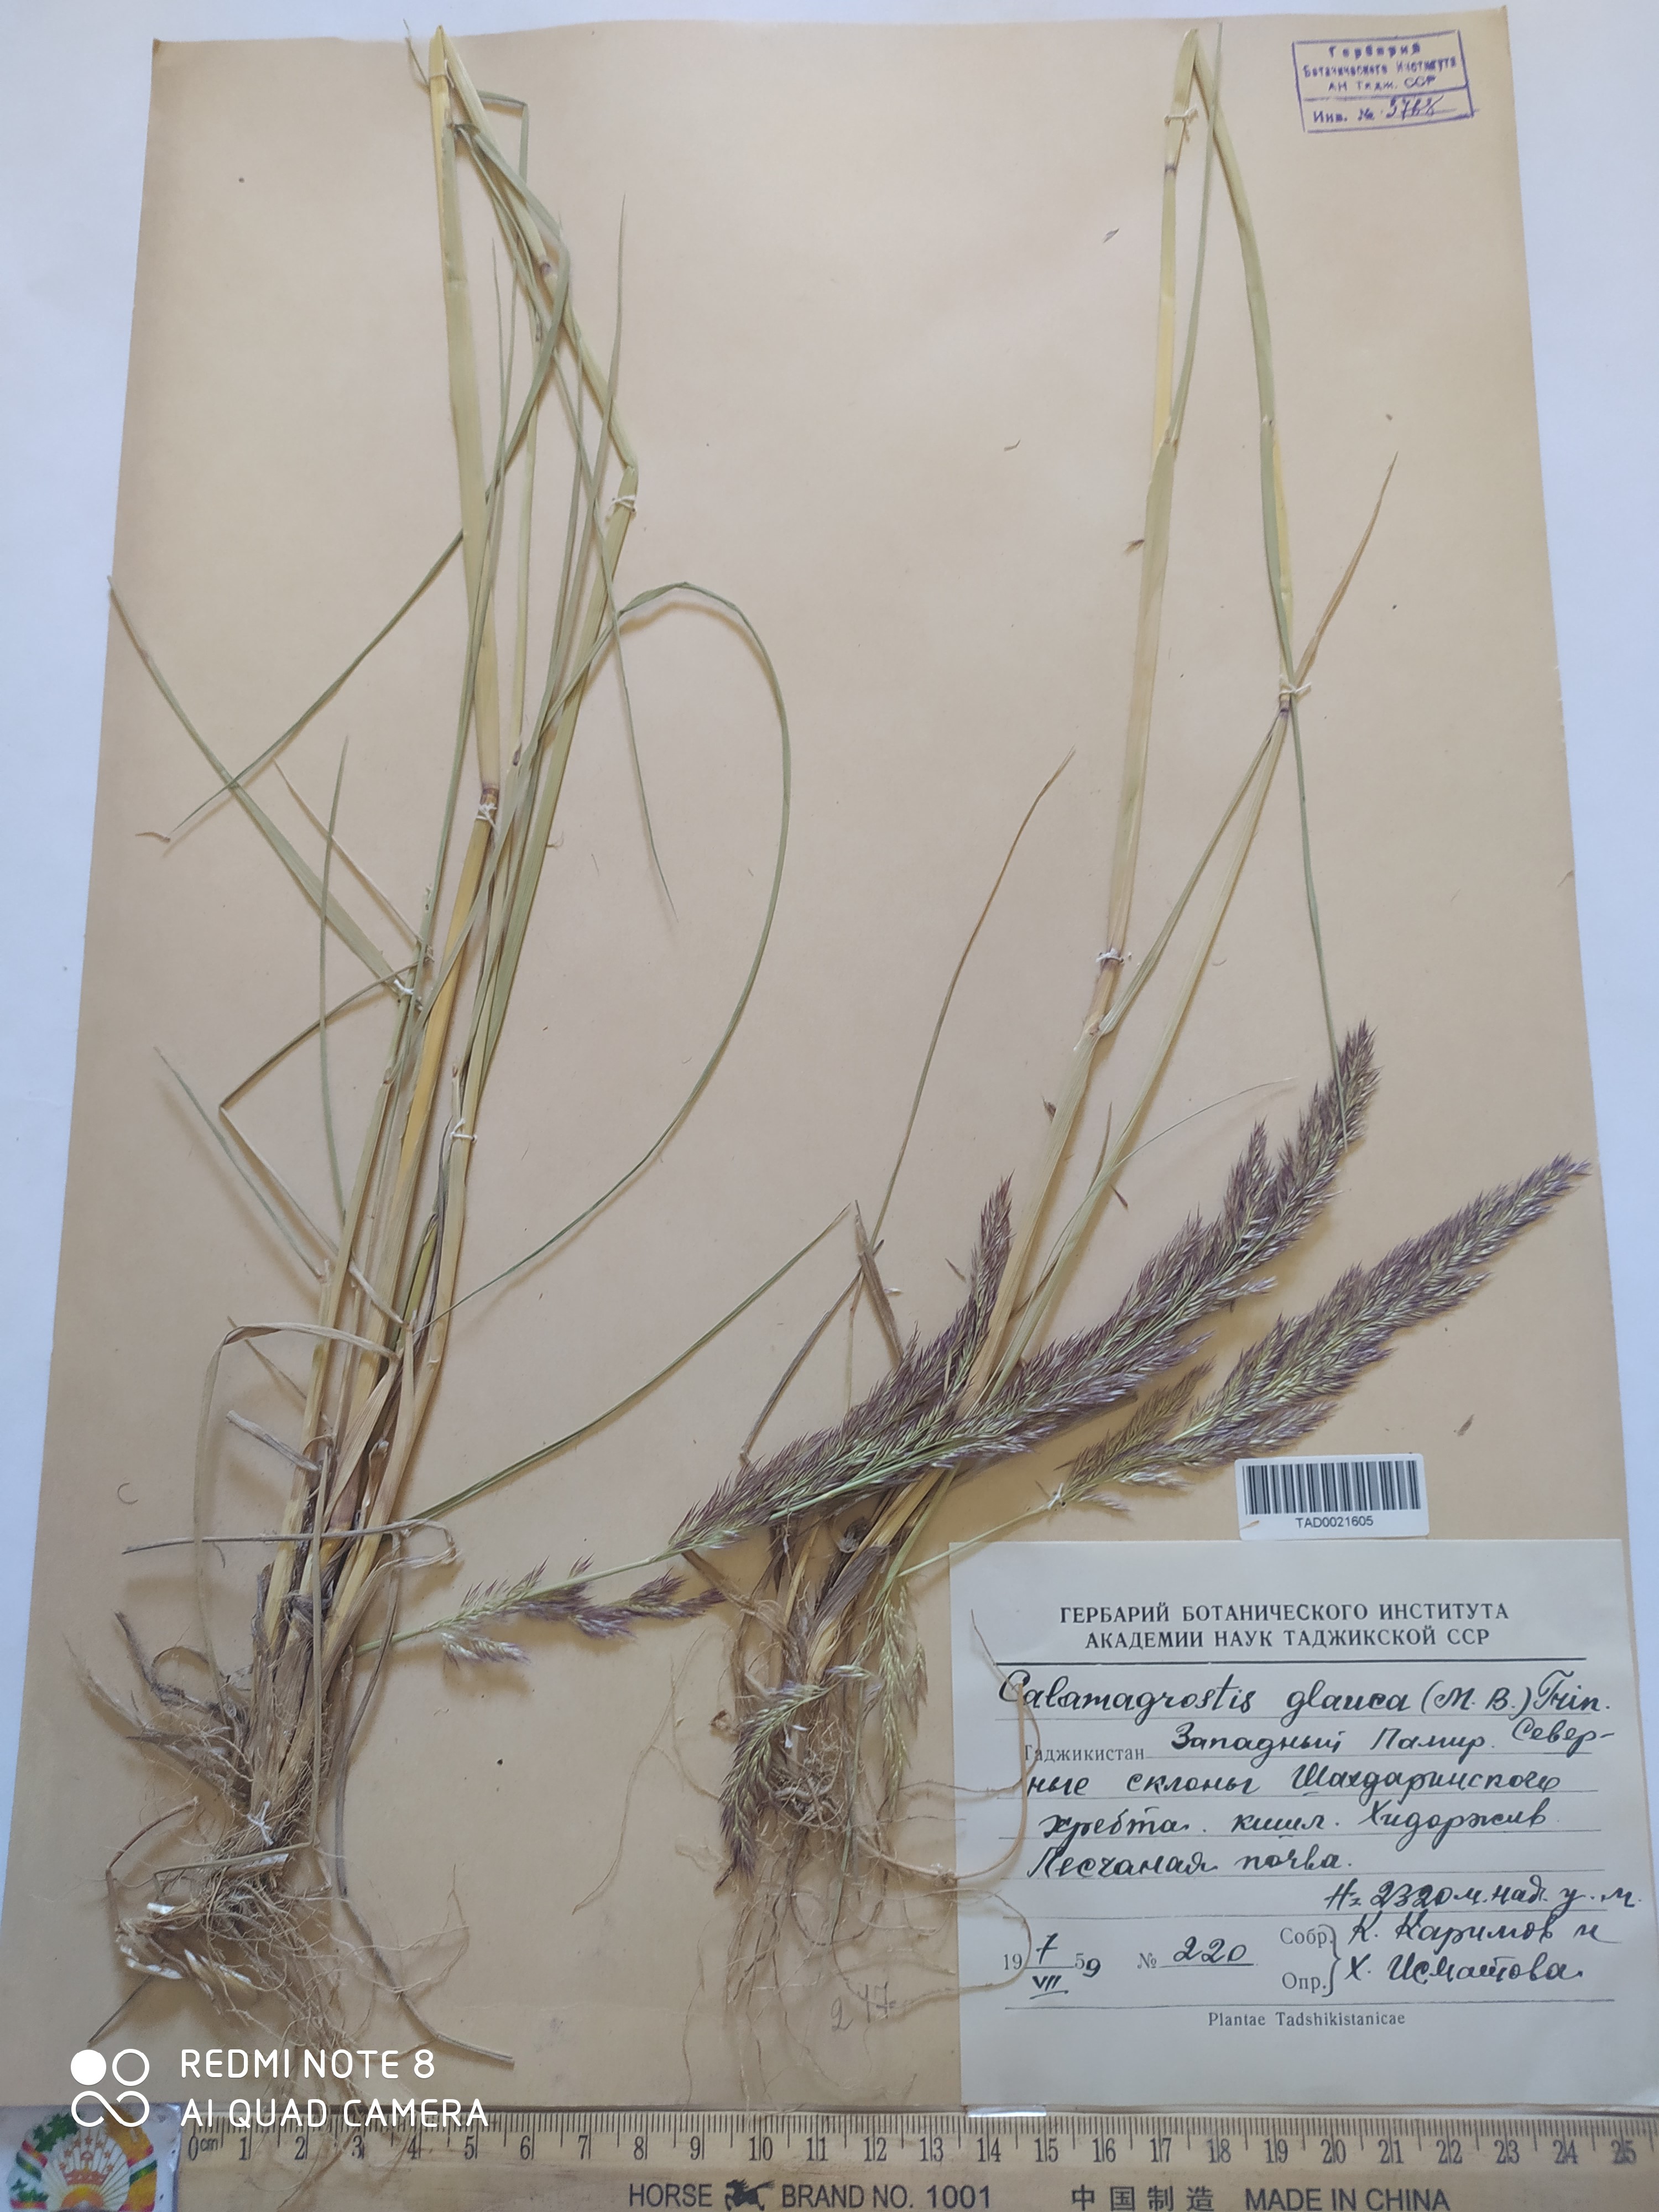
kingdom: Plantae
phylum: Tracheophyta
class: Liliopsida
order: Poales
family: Poaceae
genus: Calamagrostis
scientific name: Calamagrostis pseudophragmites
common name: Coastal small-reed
